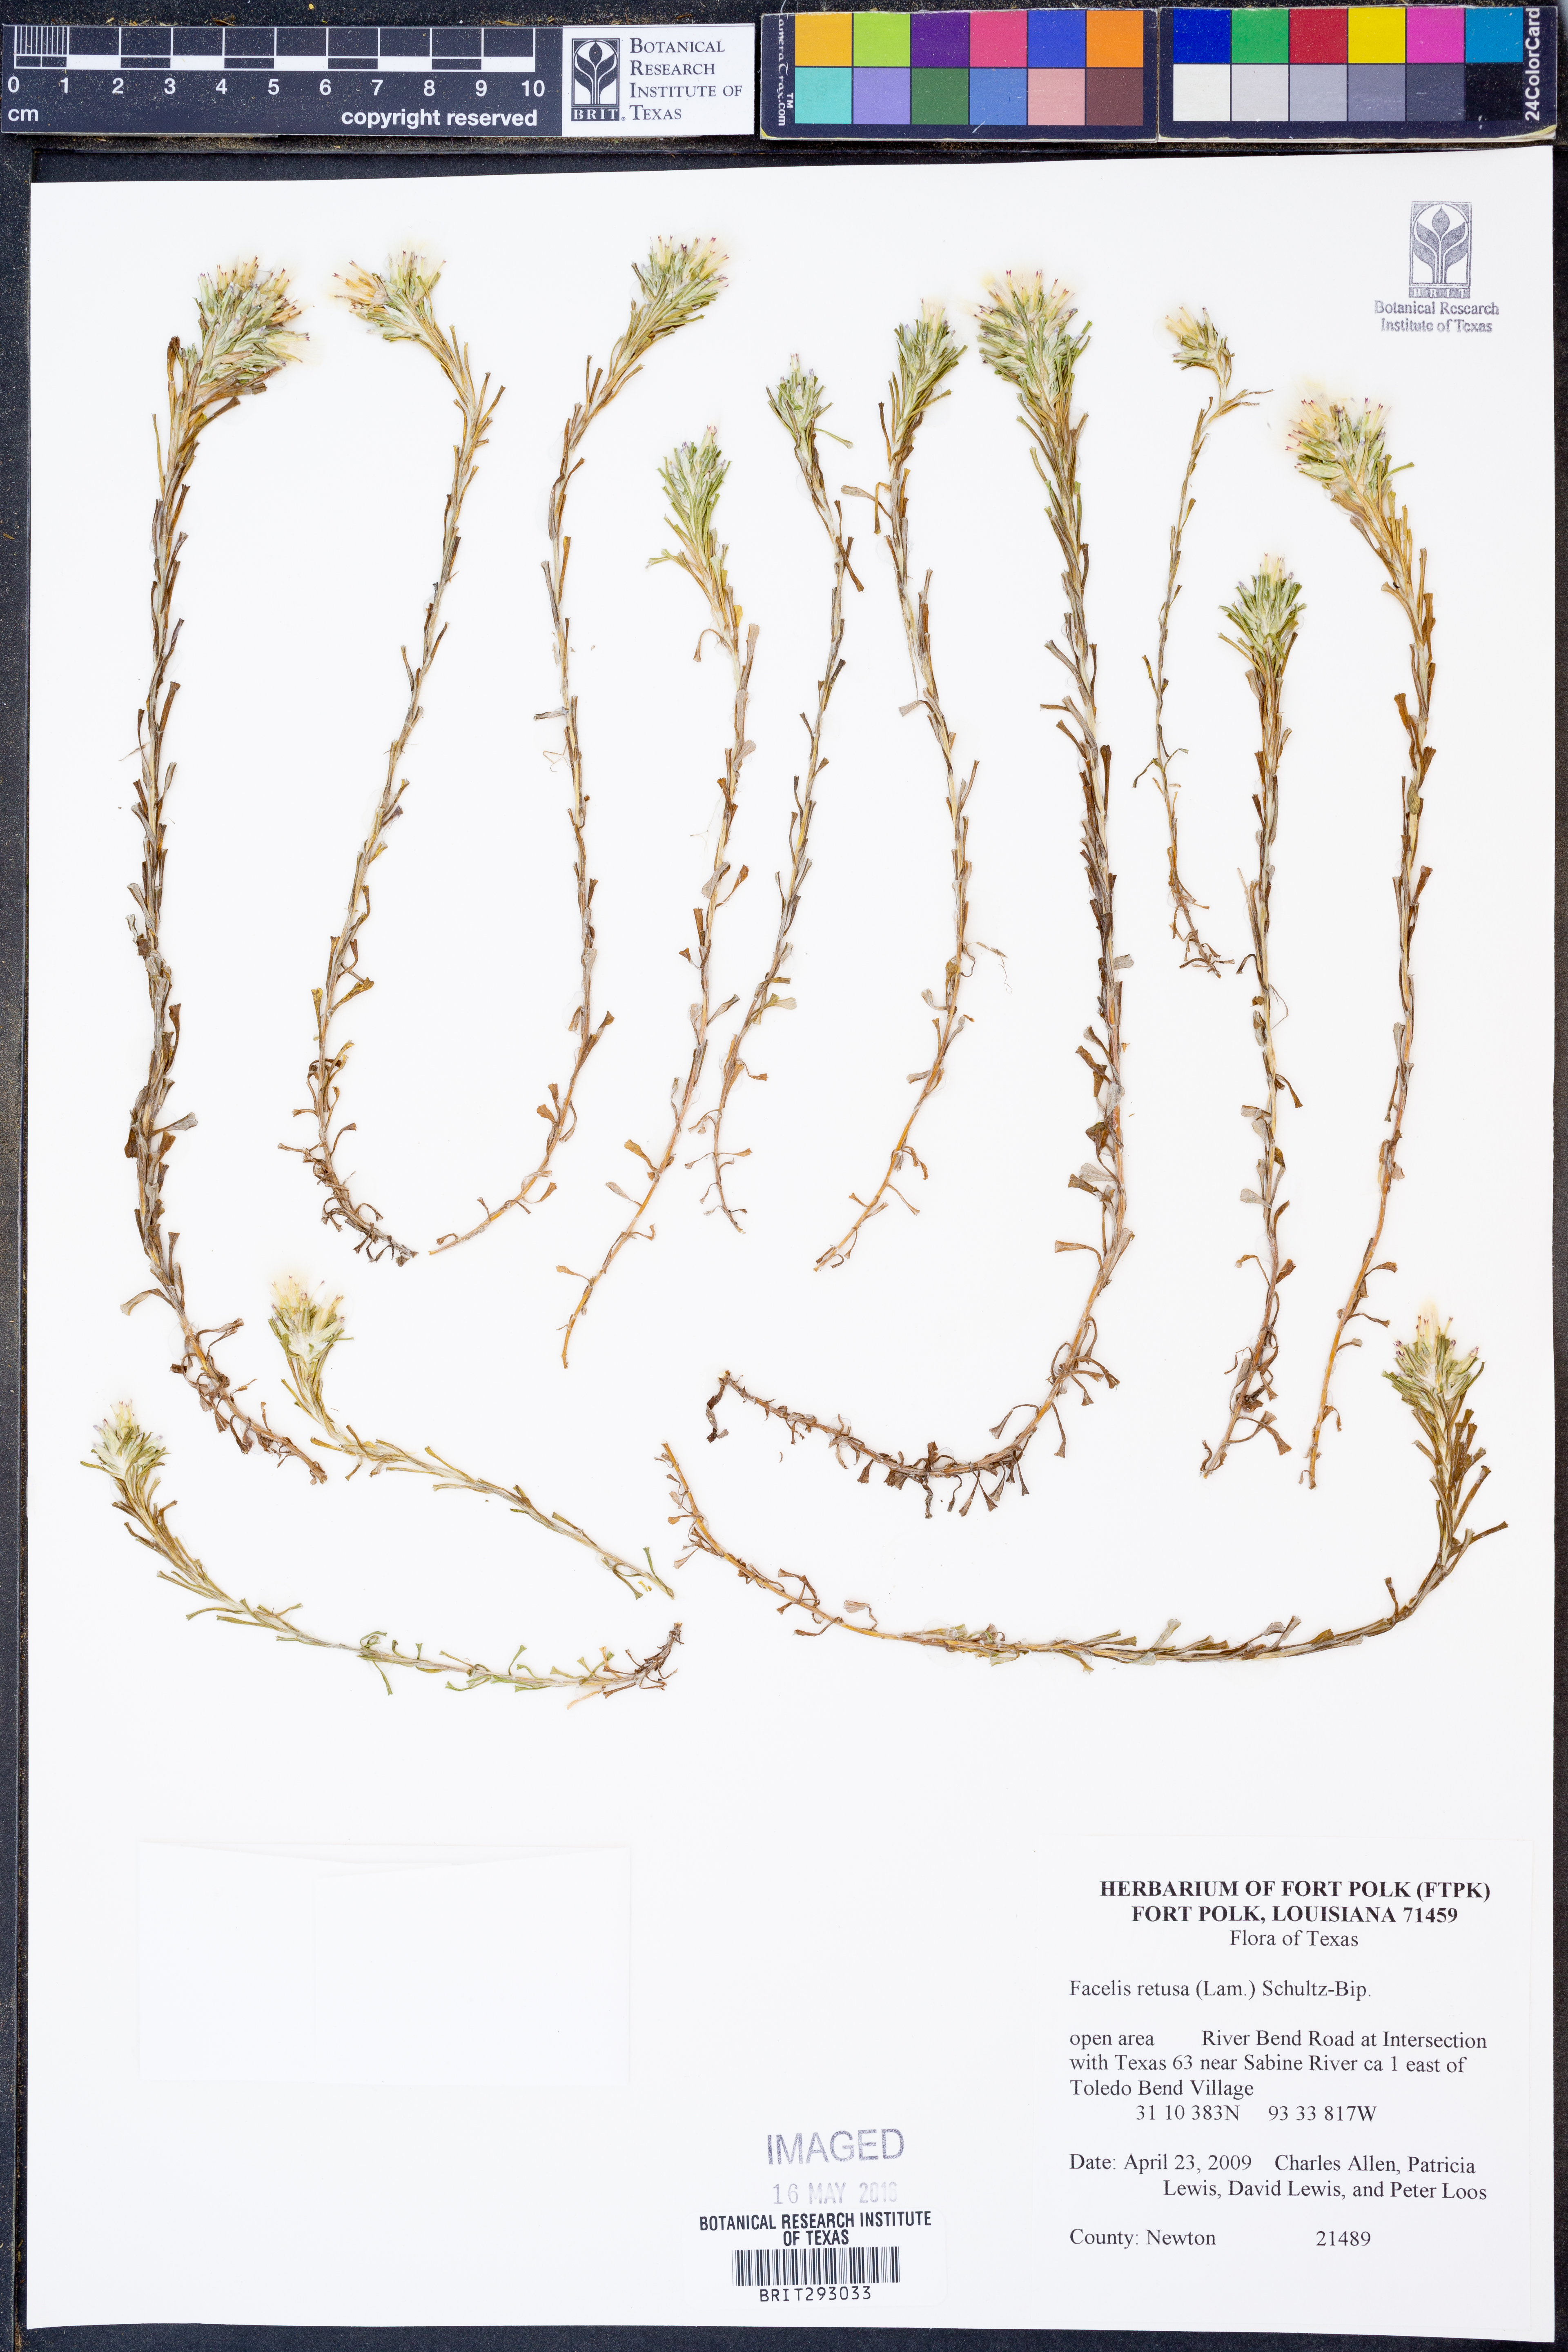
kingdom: Plantae
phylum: Tracheophyta
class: Magnoliopsida
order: Asterales
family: Asteraceae
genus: Facelis
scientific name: Facelis retusa
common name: Annual trampweed
